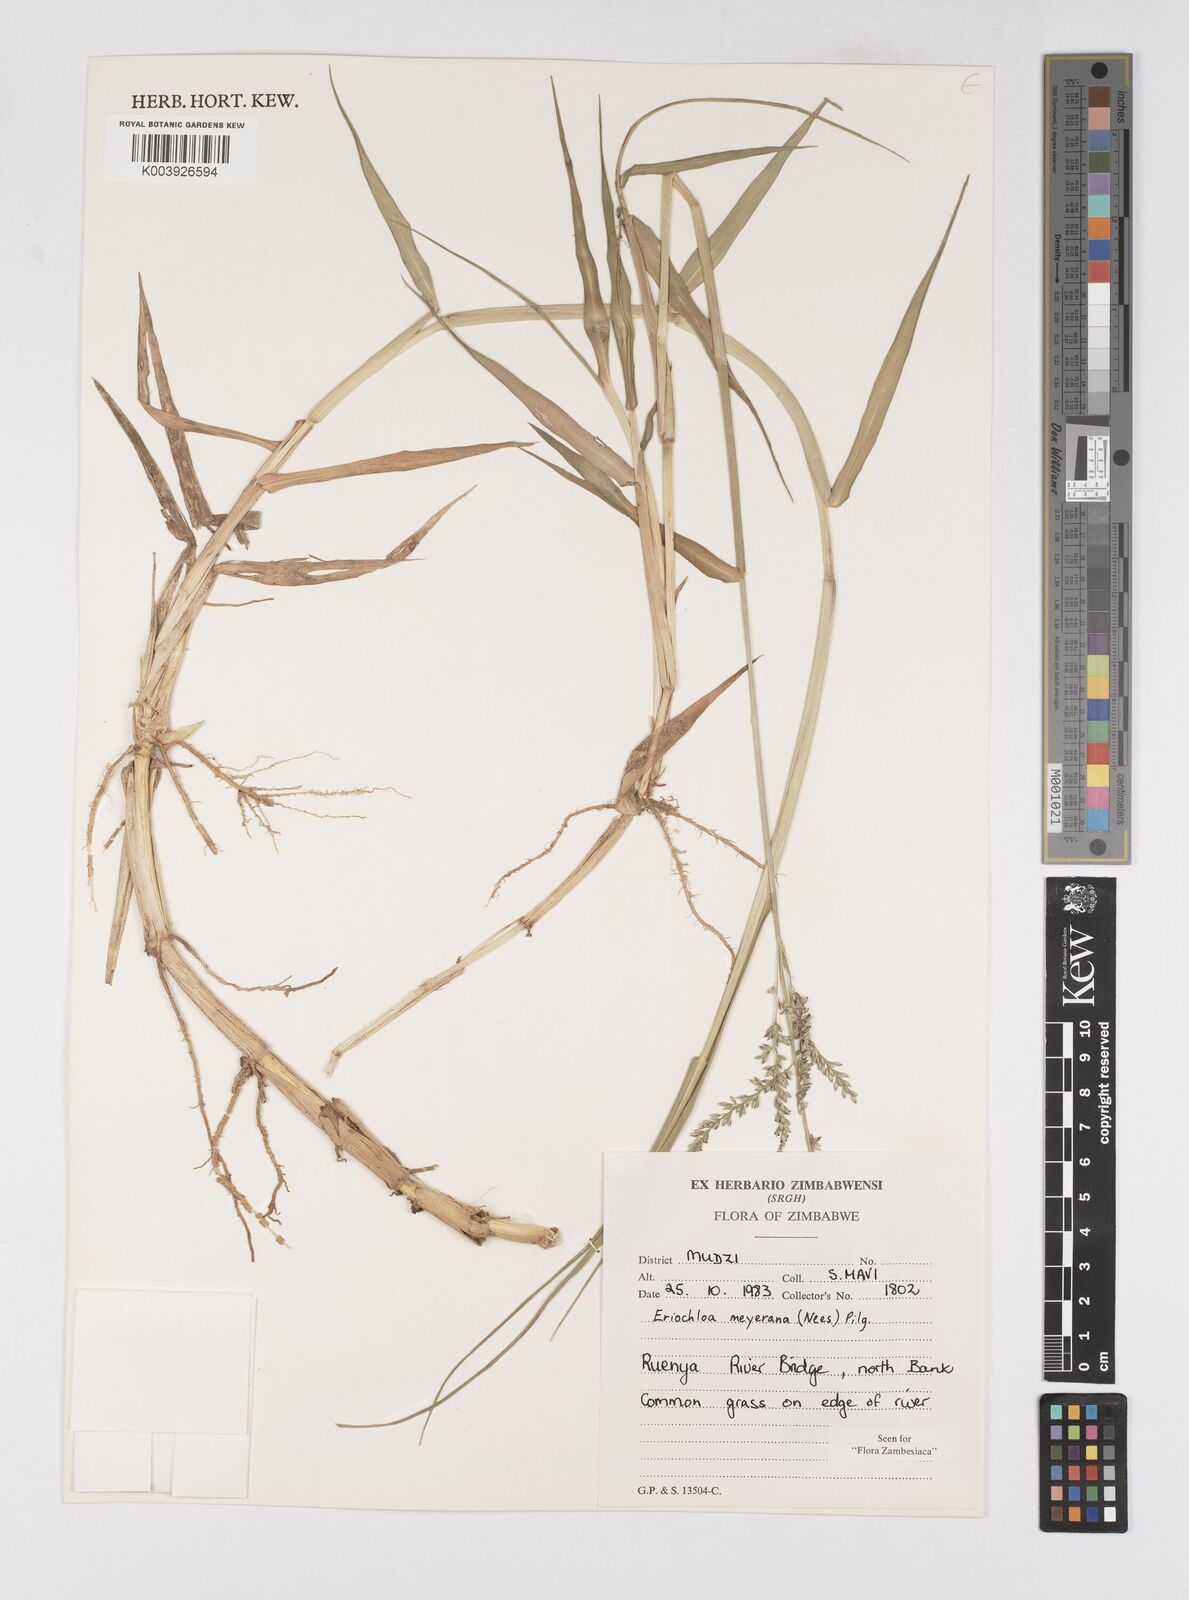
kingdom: Plantae
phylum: Tracheophyta
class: Liliopsida
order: Poales
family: Poaceae
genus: Eriochloa
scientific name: Eriochloa meyeriana
